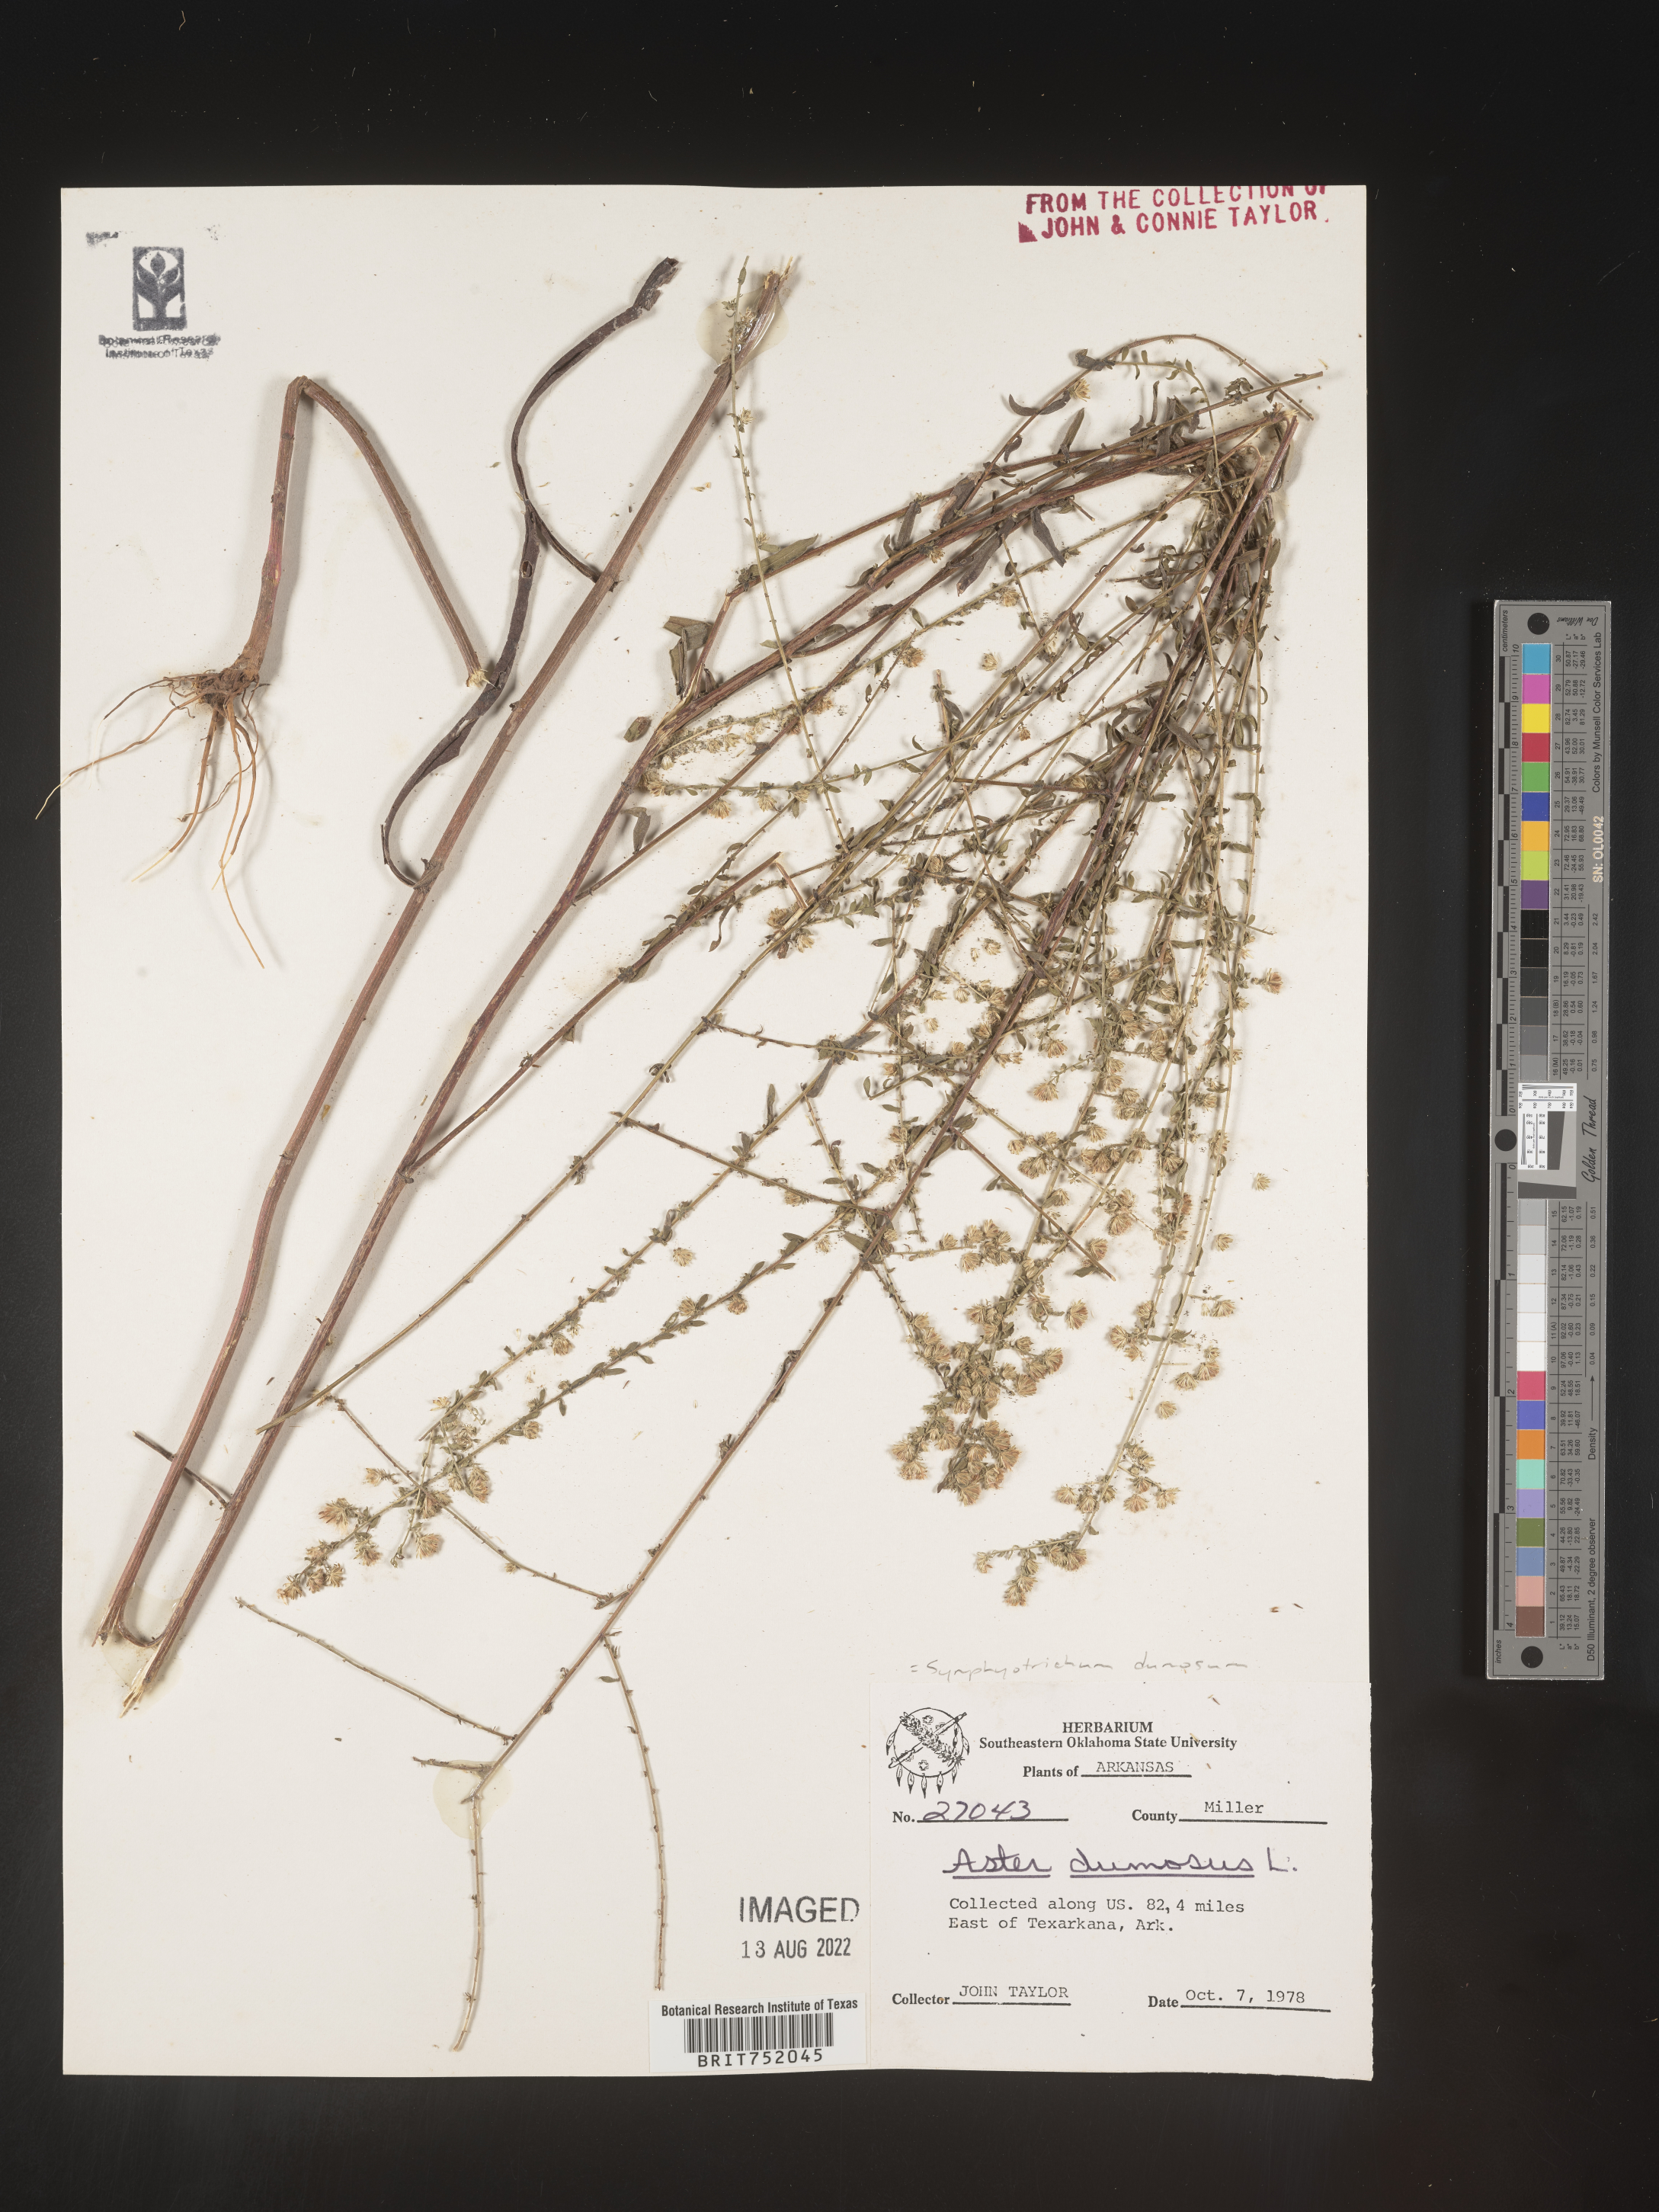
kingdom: Plantae
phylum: Tracheophyta
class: Magnoliopsida
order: Asterales
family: Asteraceae
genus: Symphyotrichum
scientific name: Symphyotrichum dumosum
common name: Bushy aster
